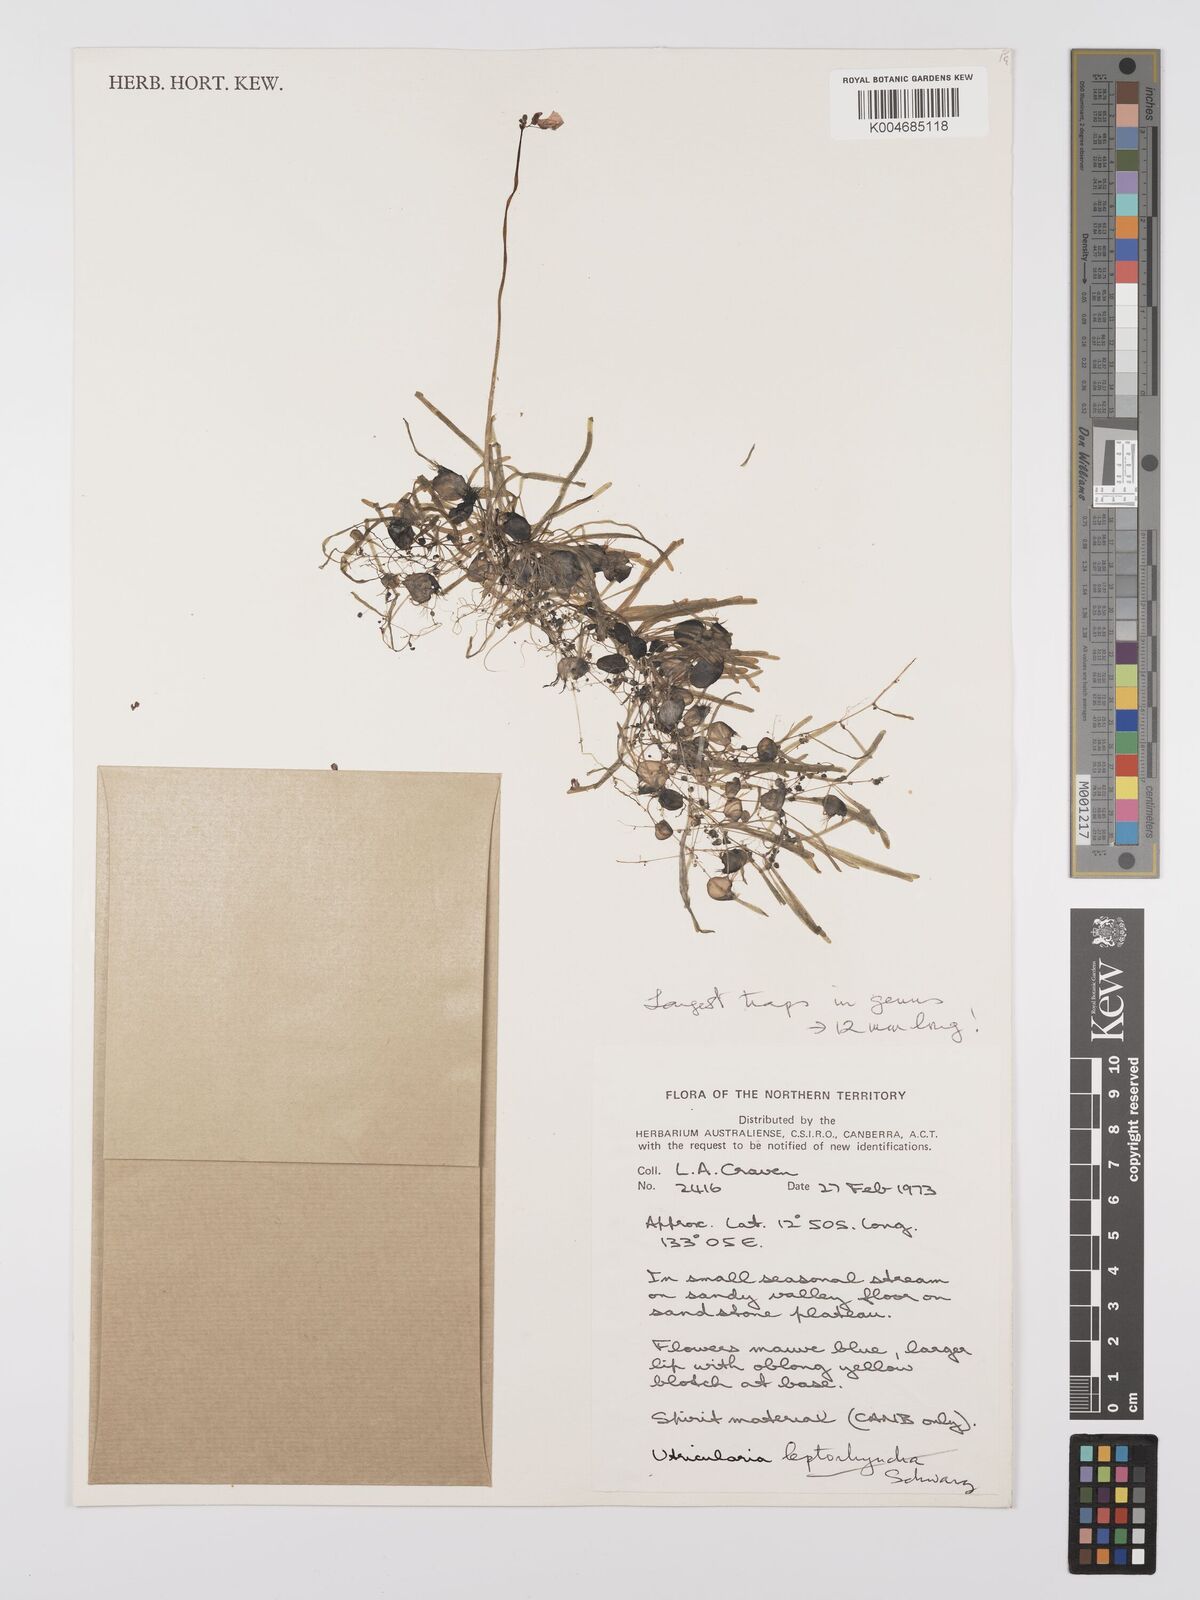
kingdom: Plantae
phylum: Tracheophyta
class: Magnoliopsida
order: Lamiales
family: Lentibulariaceae
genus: Utricularia
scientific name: Utricularia arnhemica
